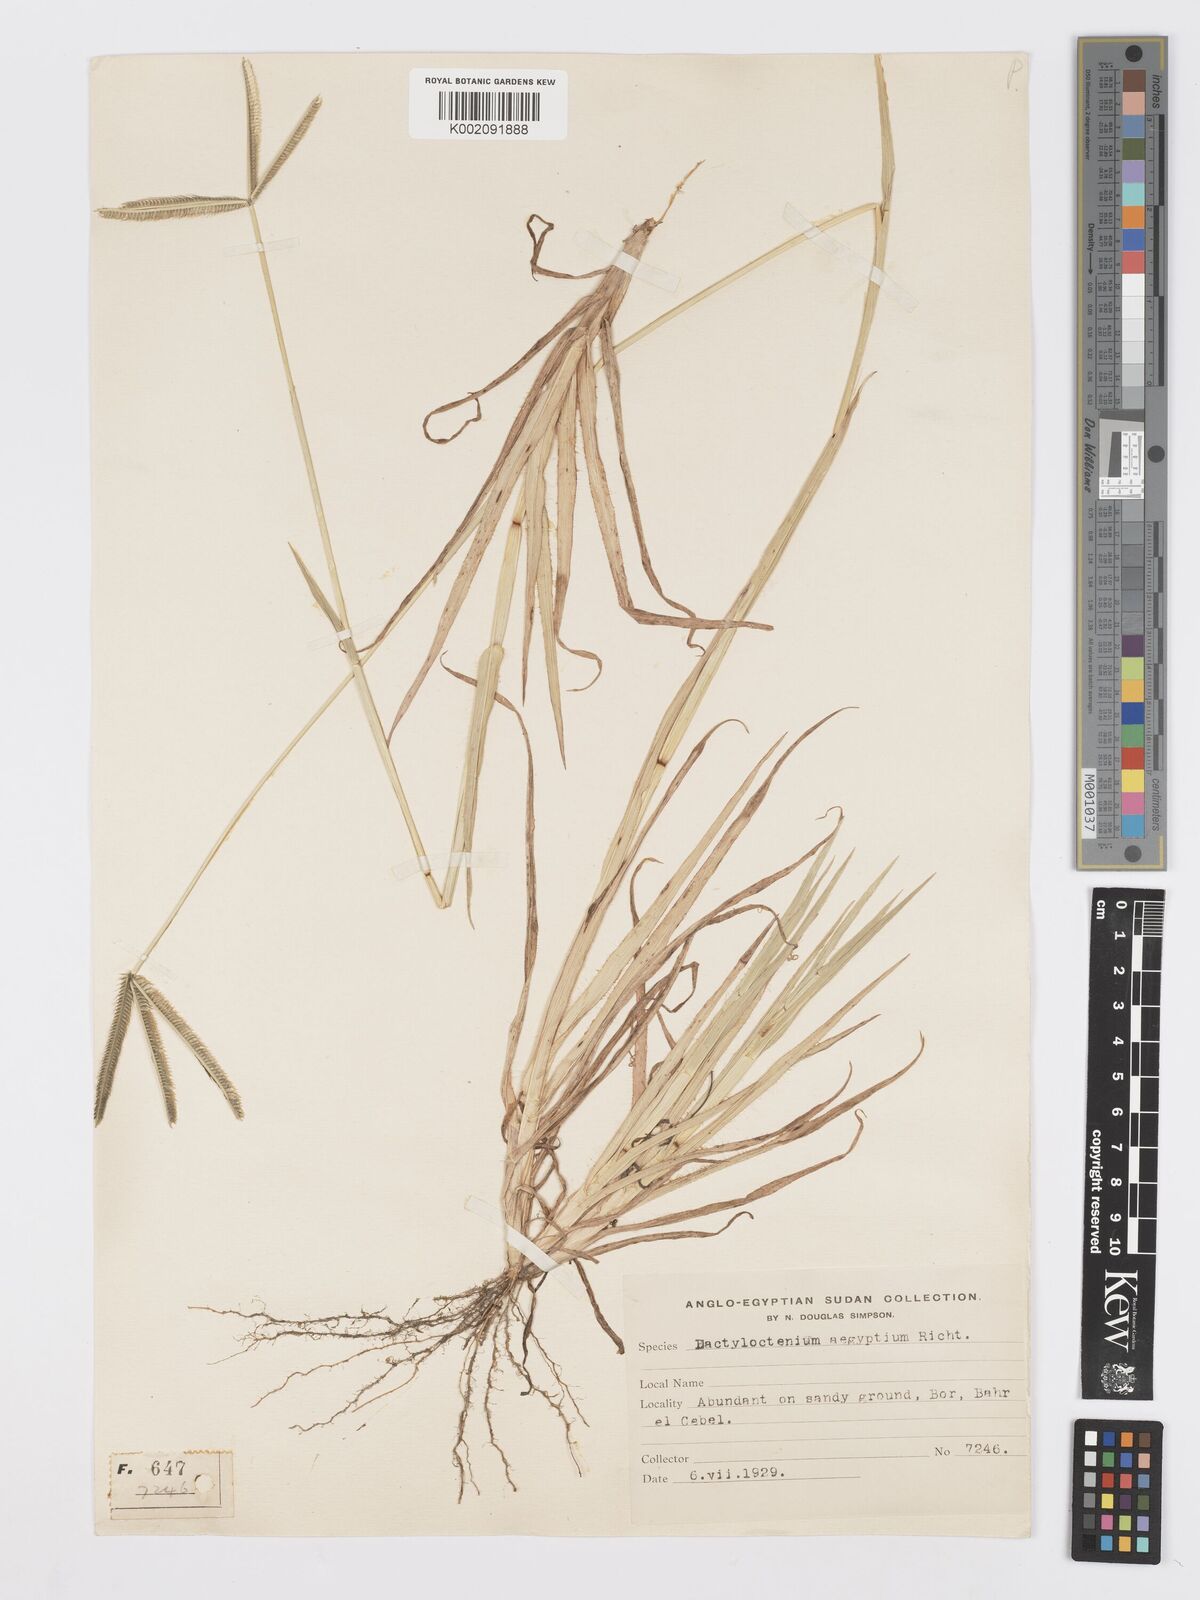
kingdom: Plantae
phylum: Tracheophyta
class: Liliopsida
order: Poales
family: Poaceae
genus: Dactyloctenium
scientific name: Dactyloctenium aegyptium
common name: Egyptian grass
